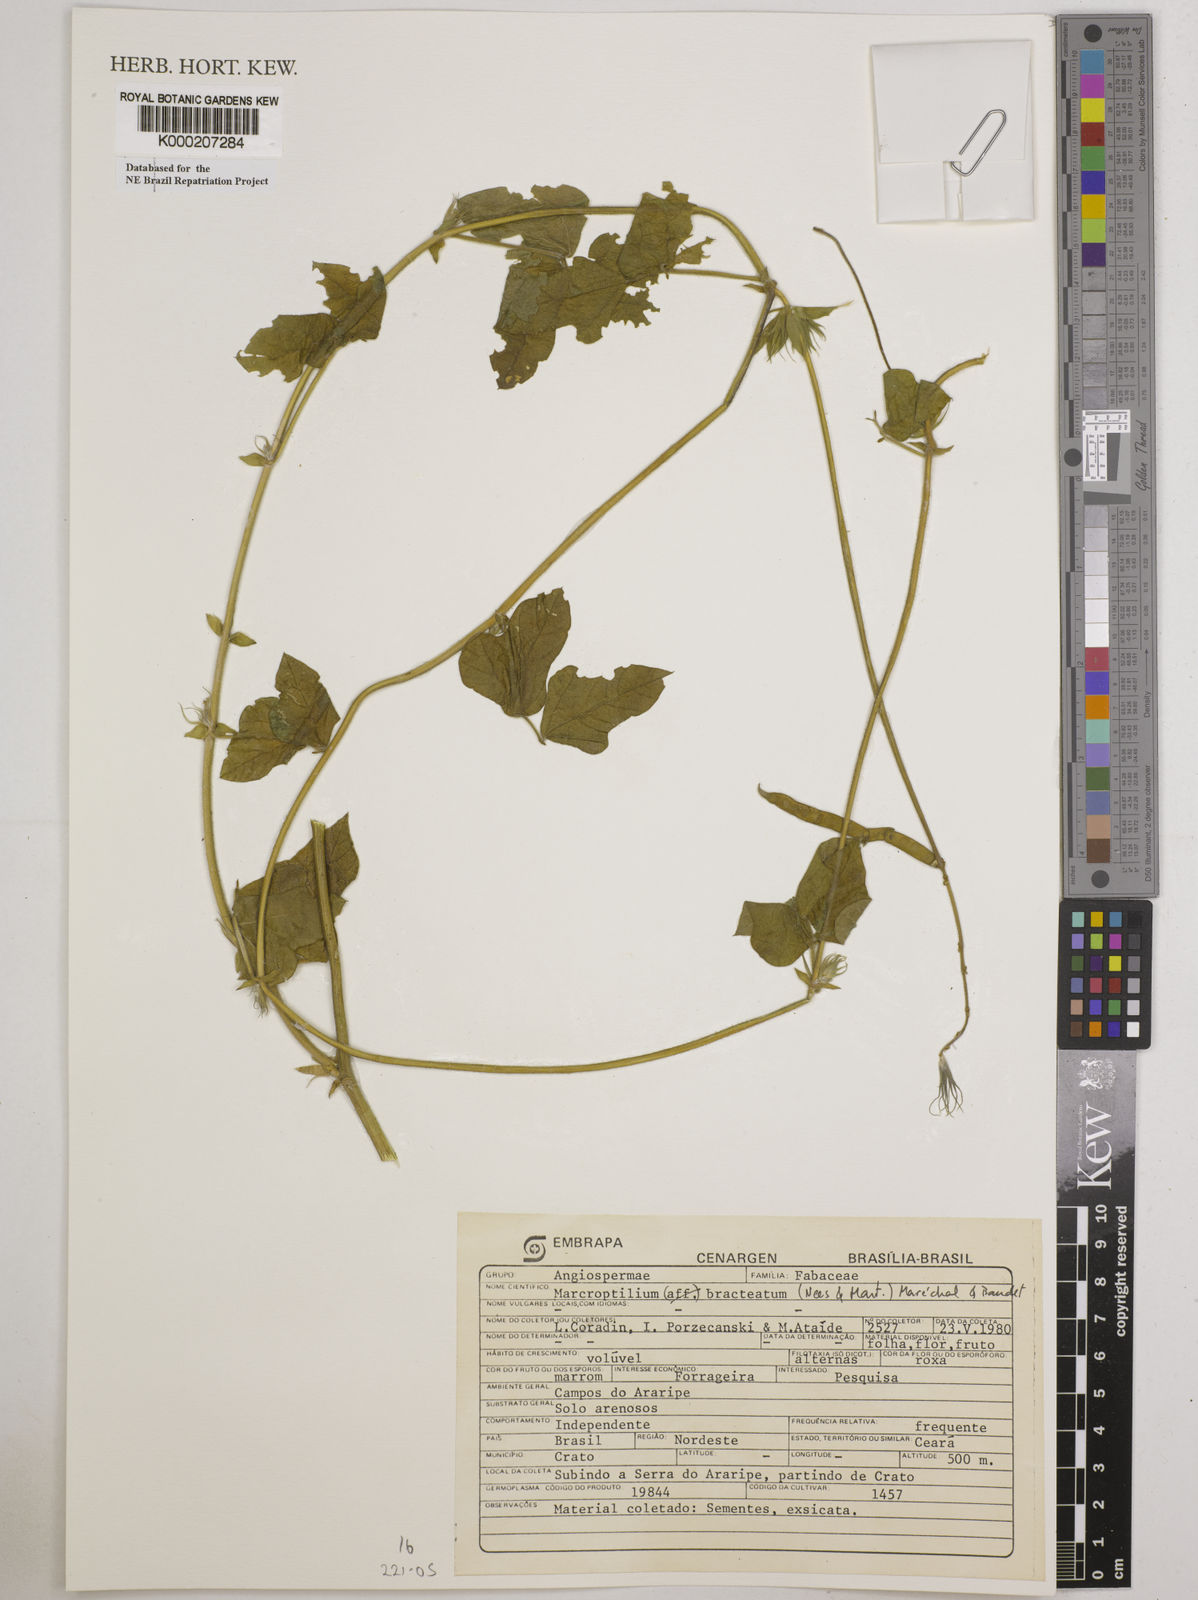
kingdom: Plantae
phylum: Tracheophyta
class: Magnoliopsida
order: Fabales
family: Fabaceae
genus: Macroptilium
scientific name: Macroptilium
